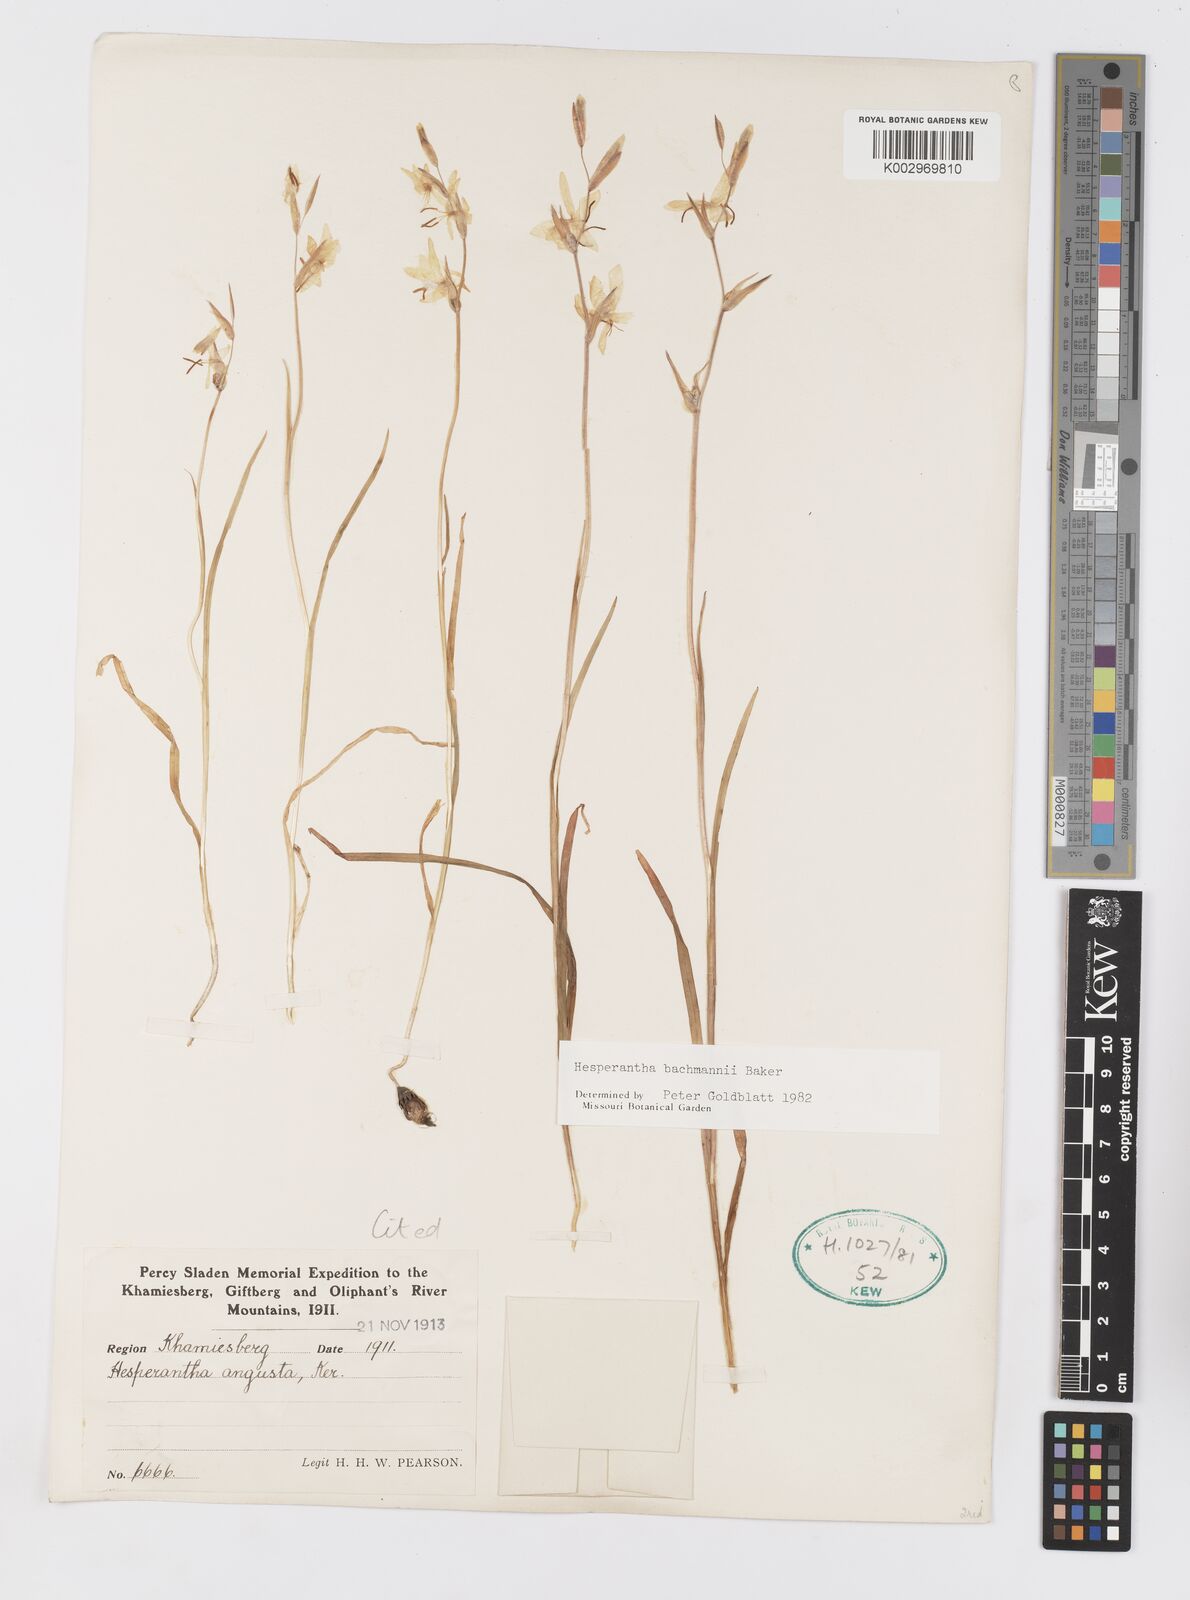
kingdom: Plantae
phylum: Tracheophyta
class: Liliopsida
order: Asparagales
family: Iridaceae
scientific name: Iridaceae
